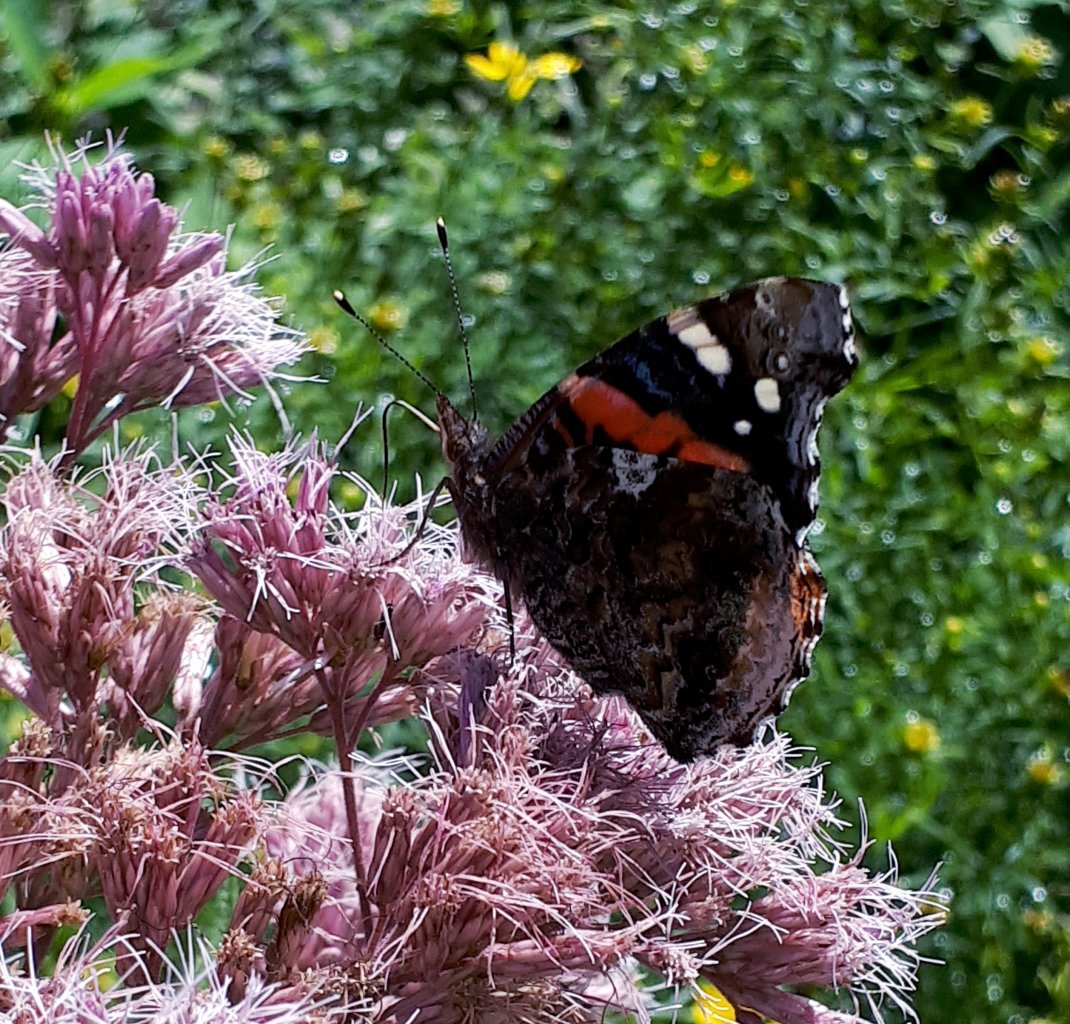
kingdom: Animalia
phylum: Arthropoda
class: Insecta
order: Lepidoptera
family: Nymphalidae
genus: Vanessa
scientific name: Vanessa atalanta
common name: Red Admiral
